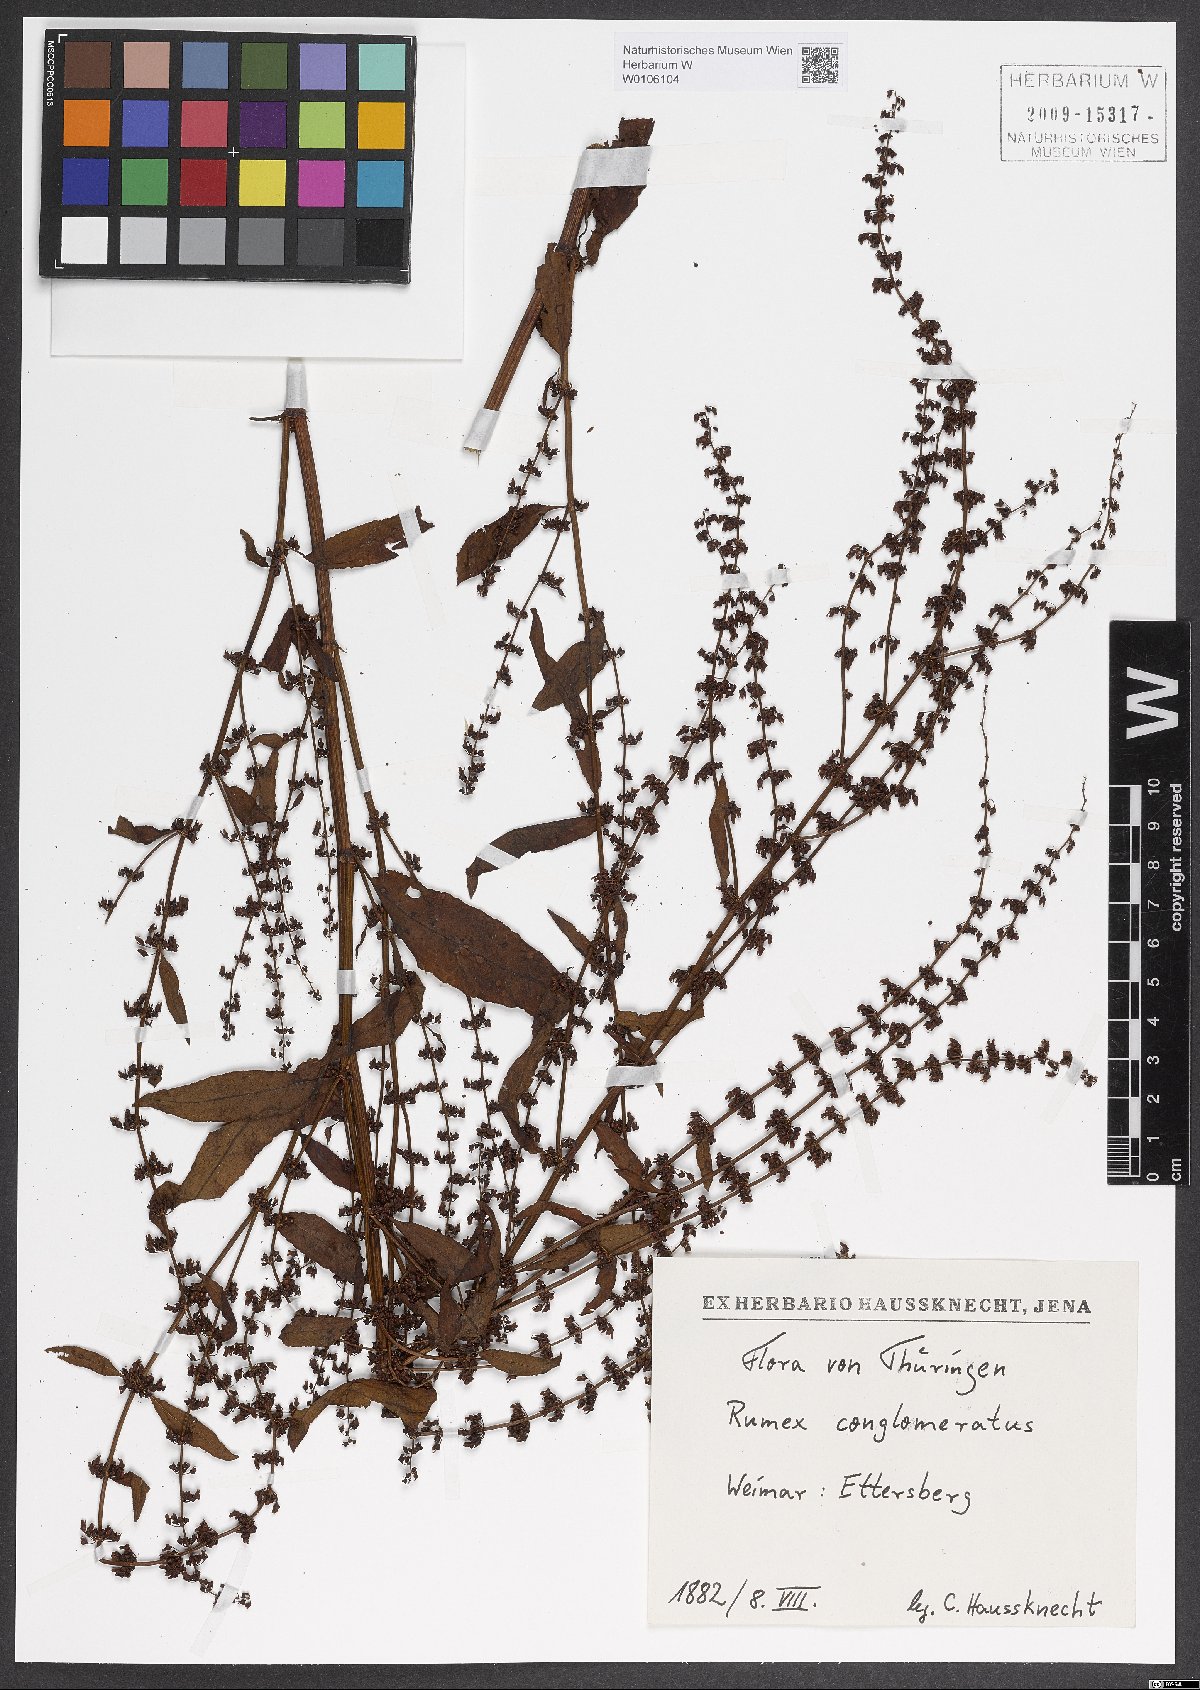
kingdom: Plantae
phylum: Tracheophyta
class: Magnoliopsida
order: Caryophyllales
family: Polygonaceae
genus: Rumex
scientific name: Rumex conglomeratus
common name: Clustered dock
